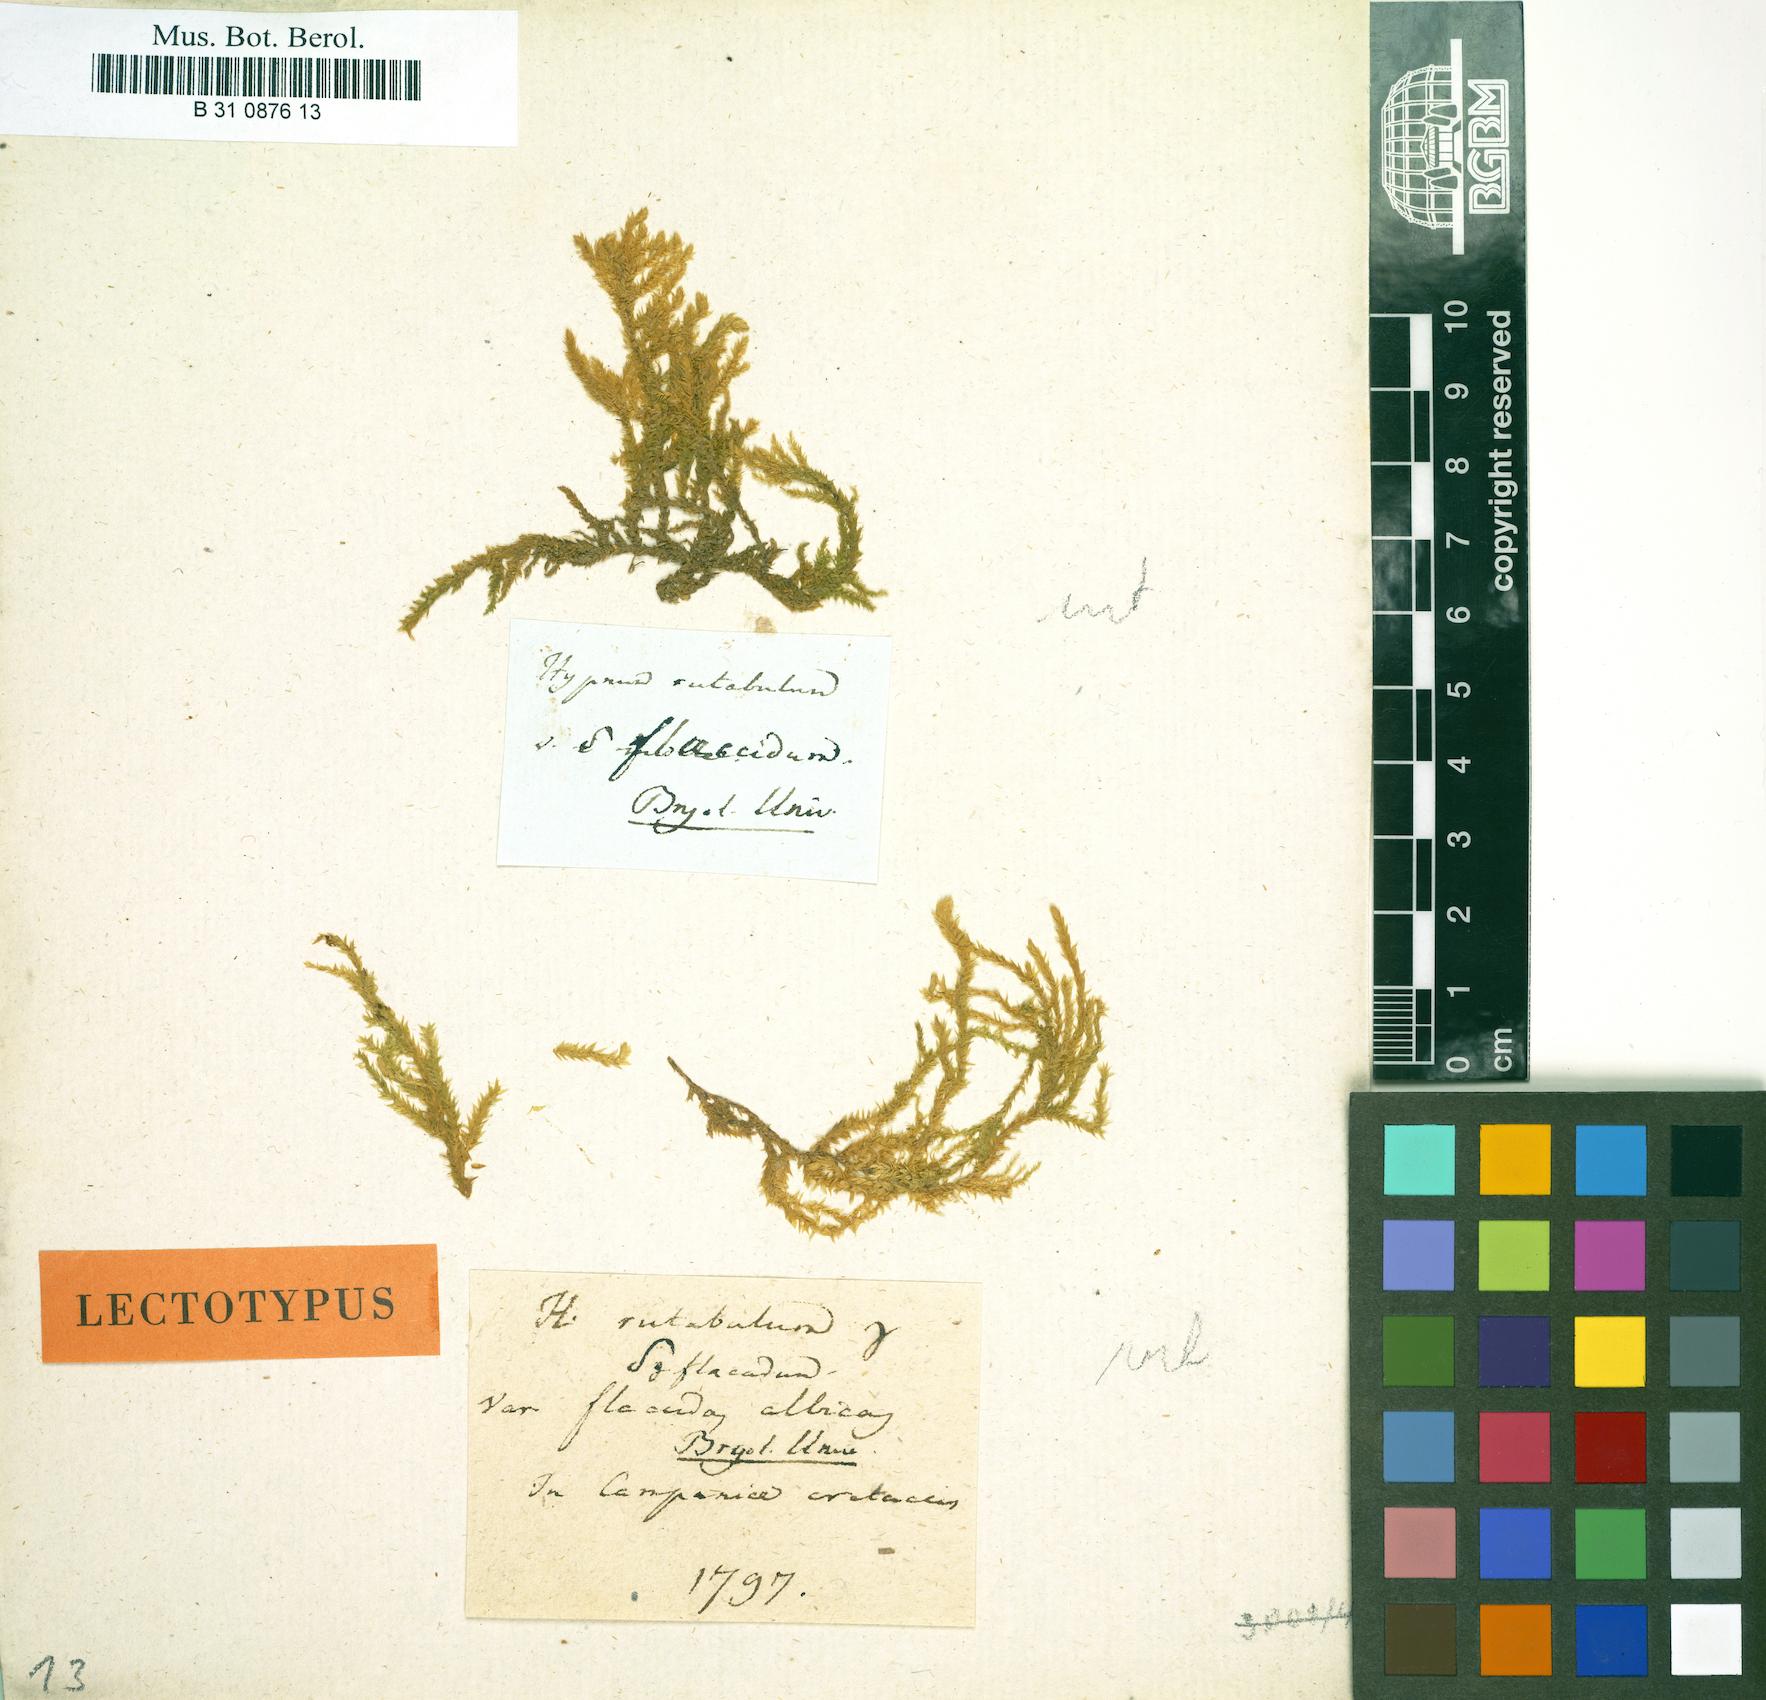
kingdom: Plantae
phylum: Bryophyta
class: Bryopsida
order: Hypnales
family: Brachytheciaceae
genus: Brachythecium
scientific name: Brachythecium rutabulum
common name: Rough-stalked feather-moss
